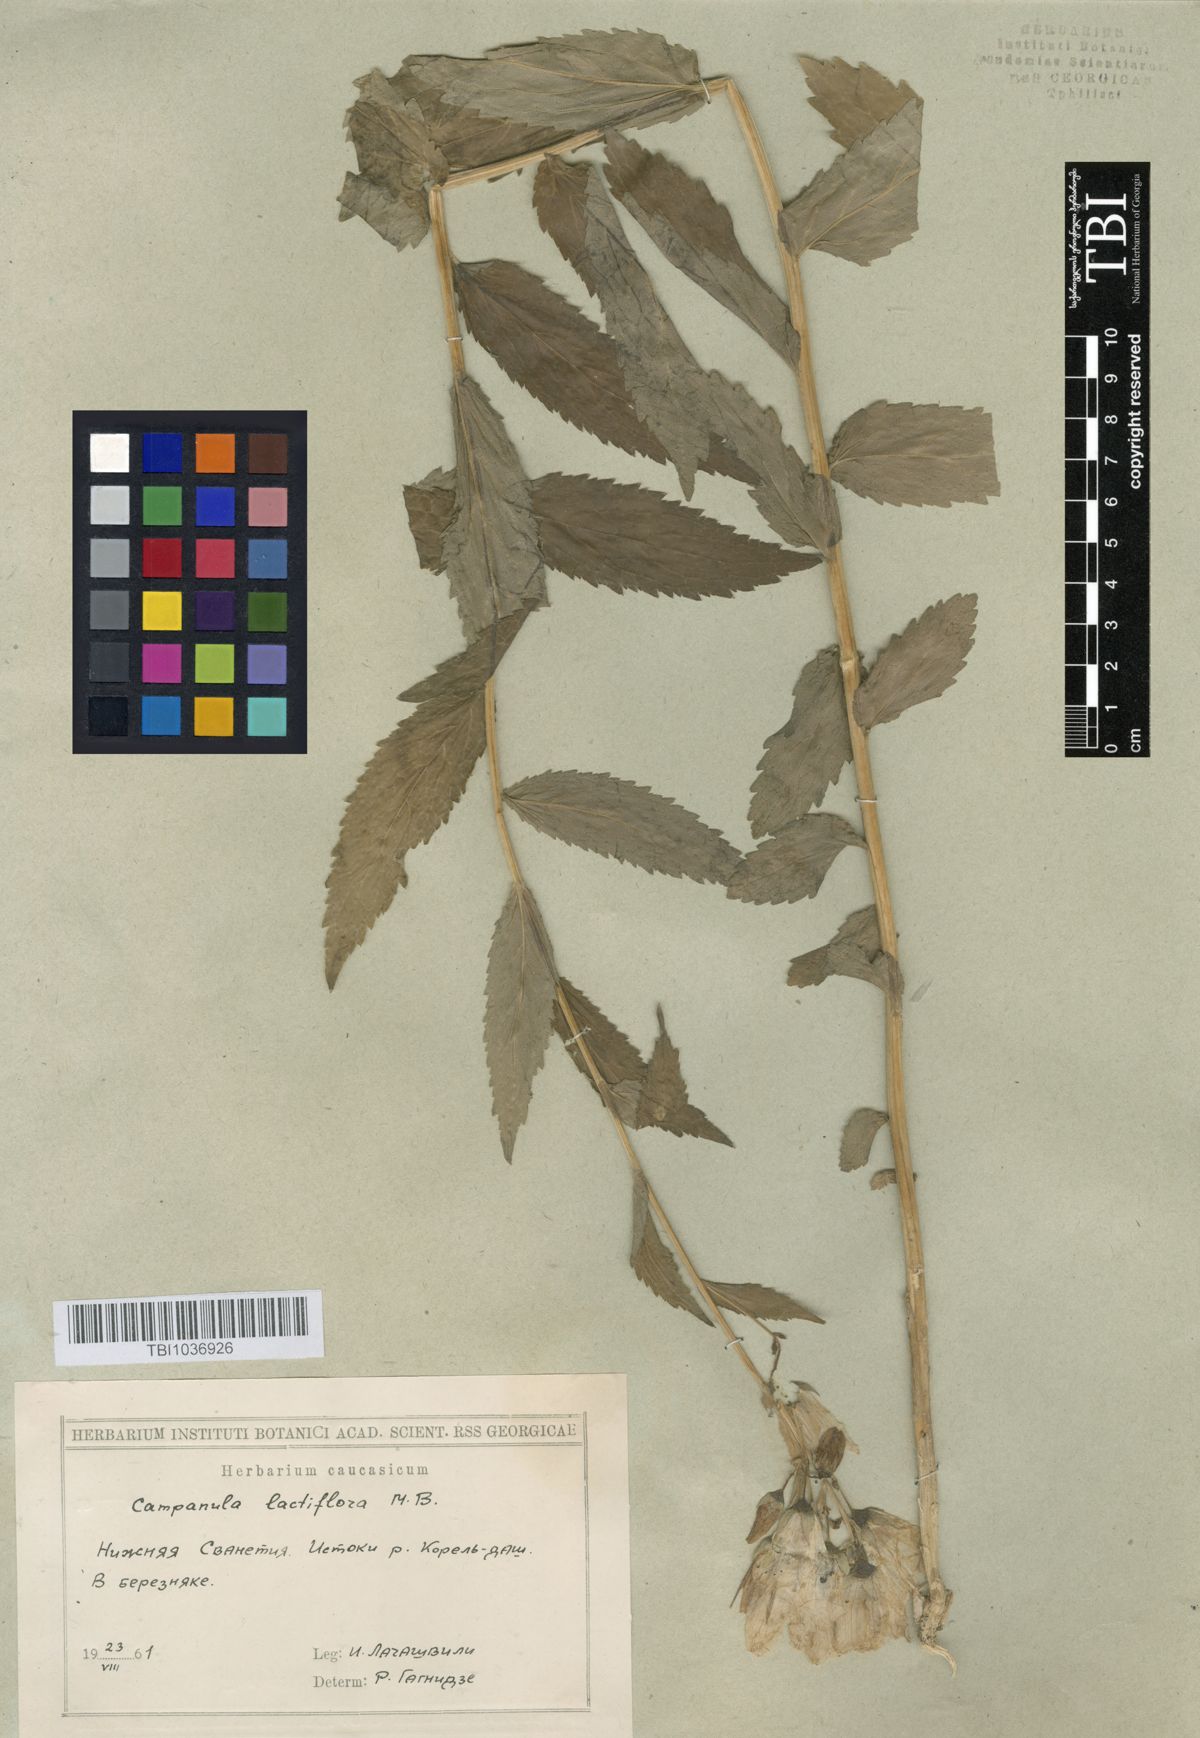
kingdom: Plantae
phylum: Tracheophyta
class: Magnoliopsida
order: Asterales
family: Campanulaceae
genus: Campanula
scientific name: Campanula lactiflora
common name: Milky bellflower
